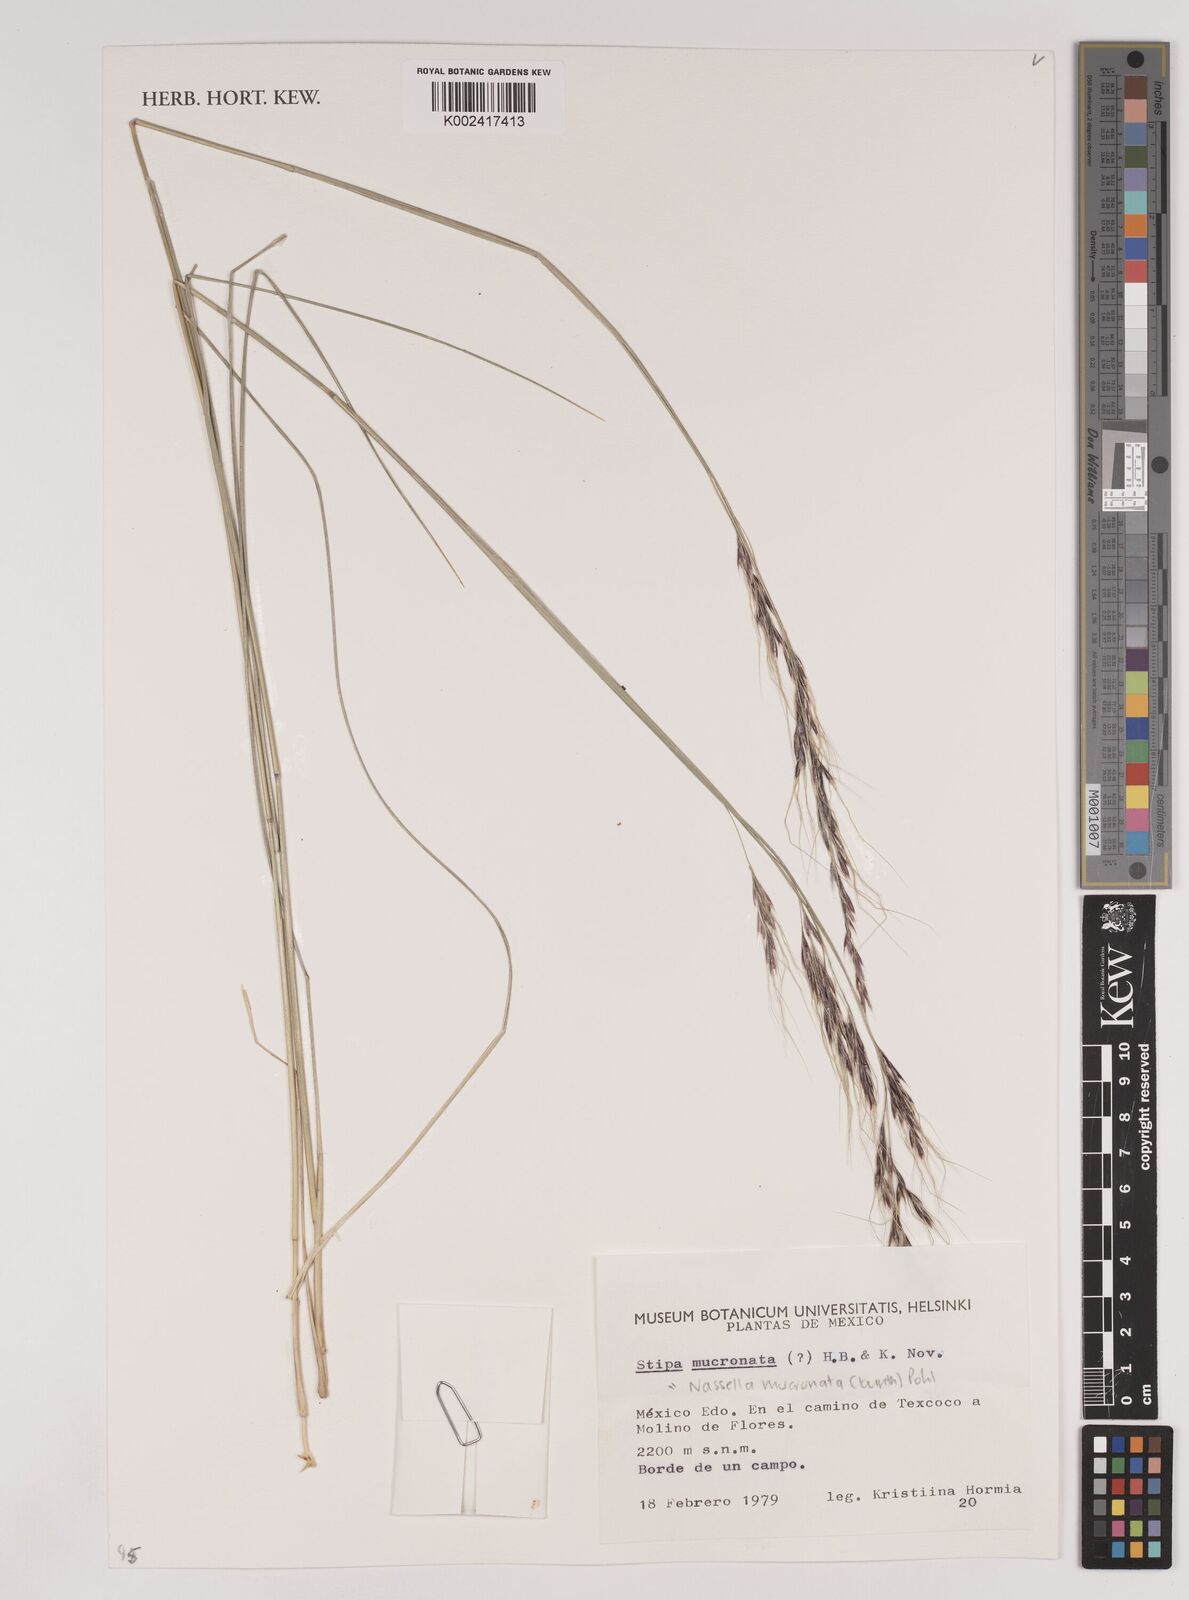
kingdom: Plantae
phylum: Tracheophyta
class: Liliopsida
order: Poales
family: Poaceae
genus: Nassella
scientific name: Nassella mucronata
